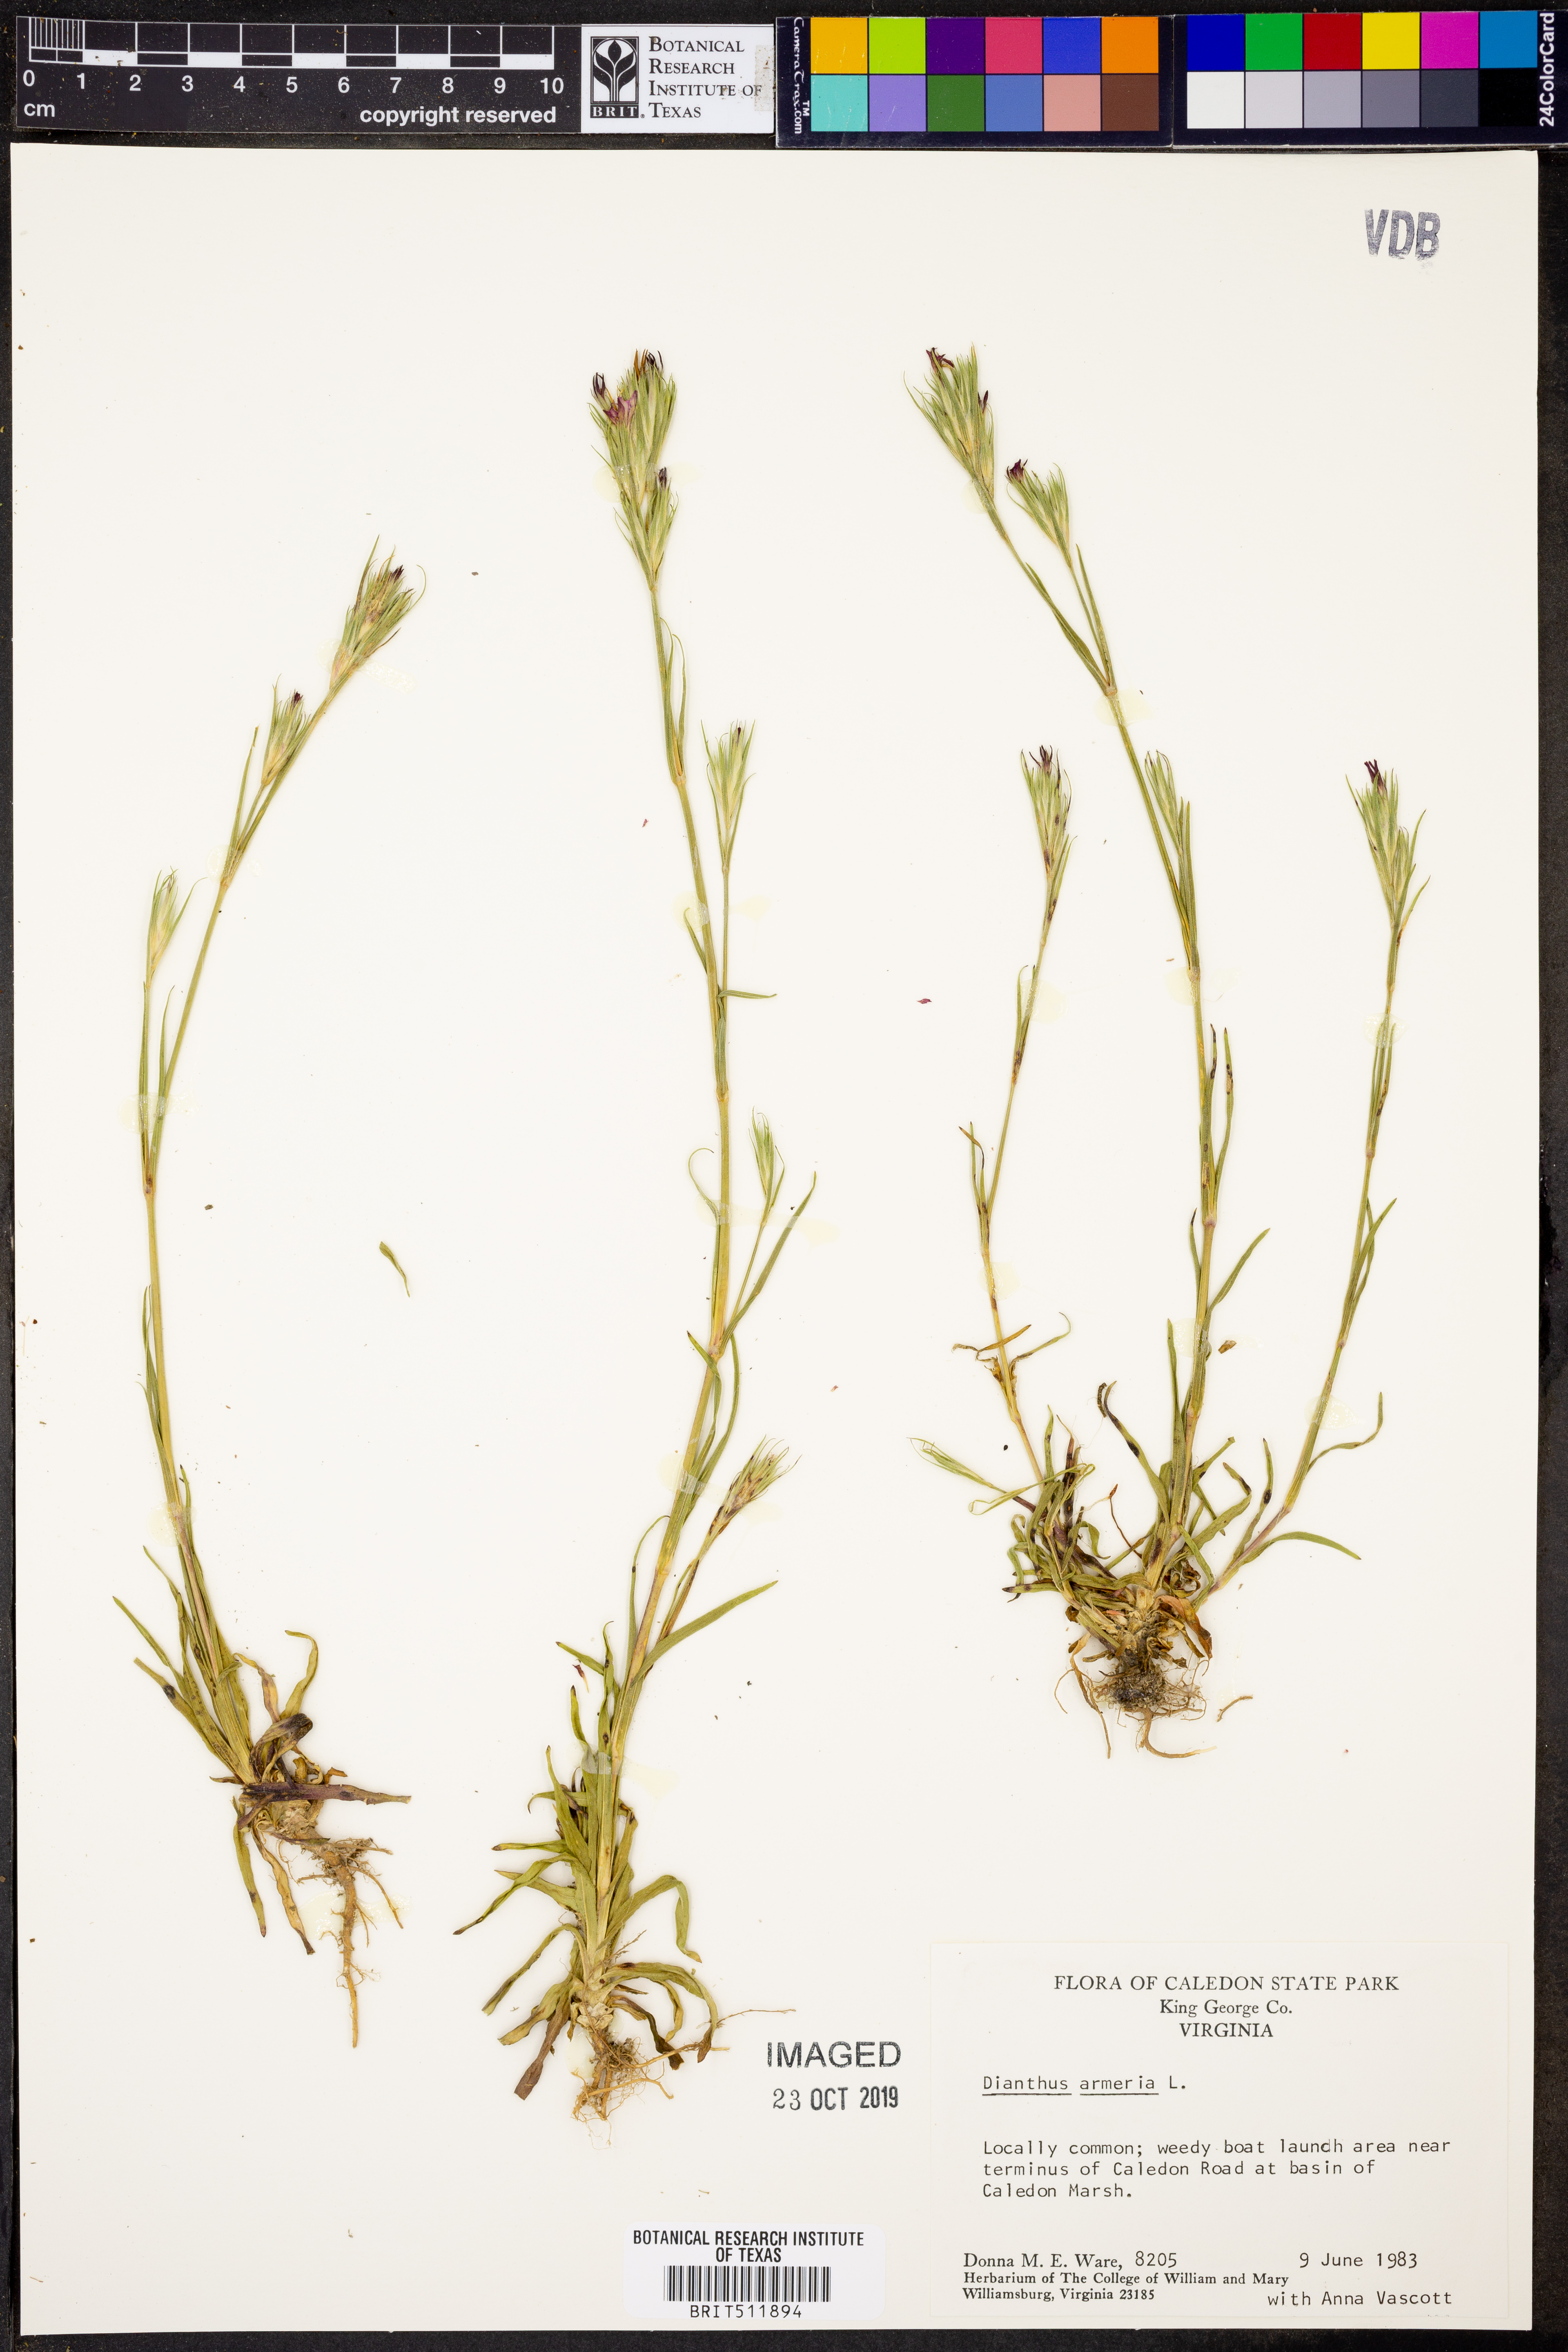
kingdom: Plantae
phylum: Tracheophyta
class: Magnoliopsida
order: Caryophyllales
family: Caryophyllaceae
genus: Dianthus
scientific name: Dianthus armeria
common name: Deptford pink
